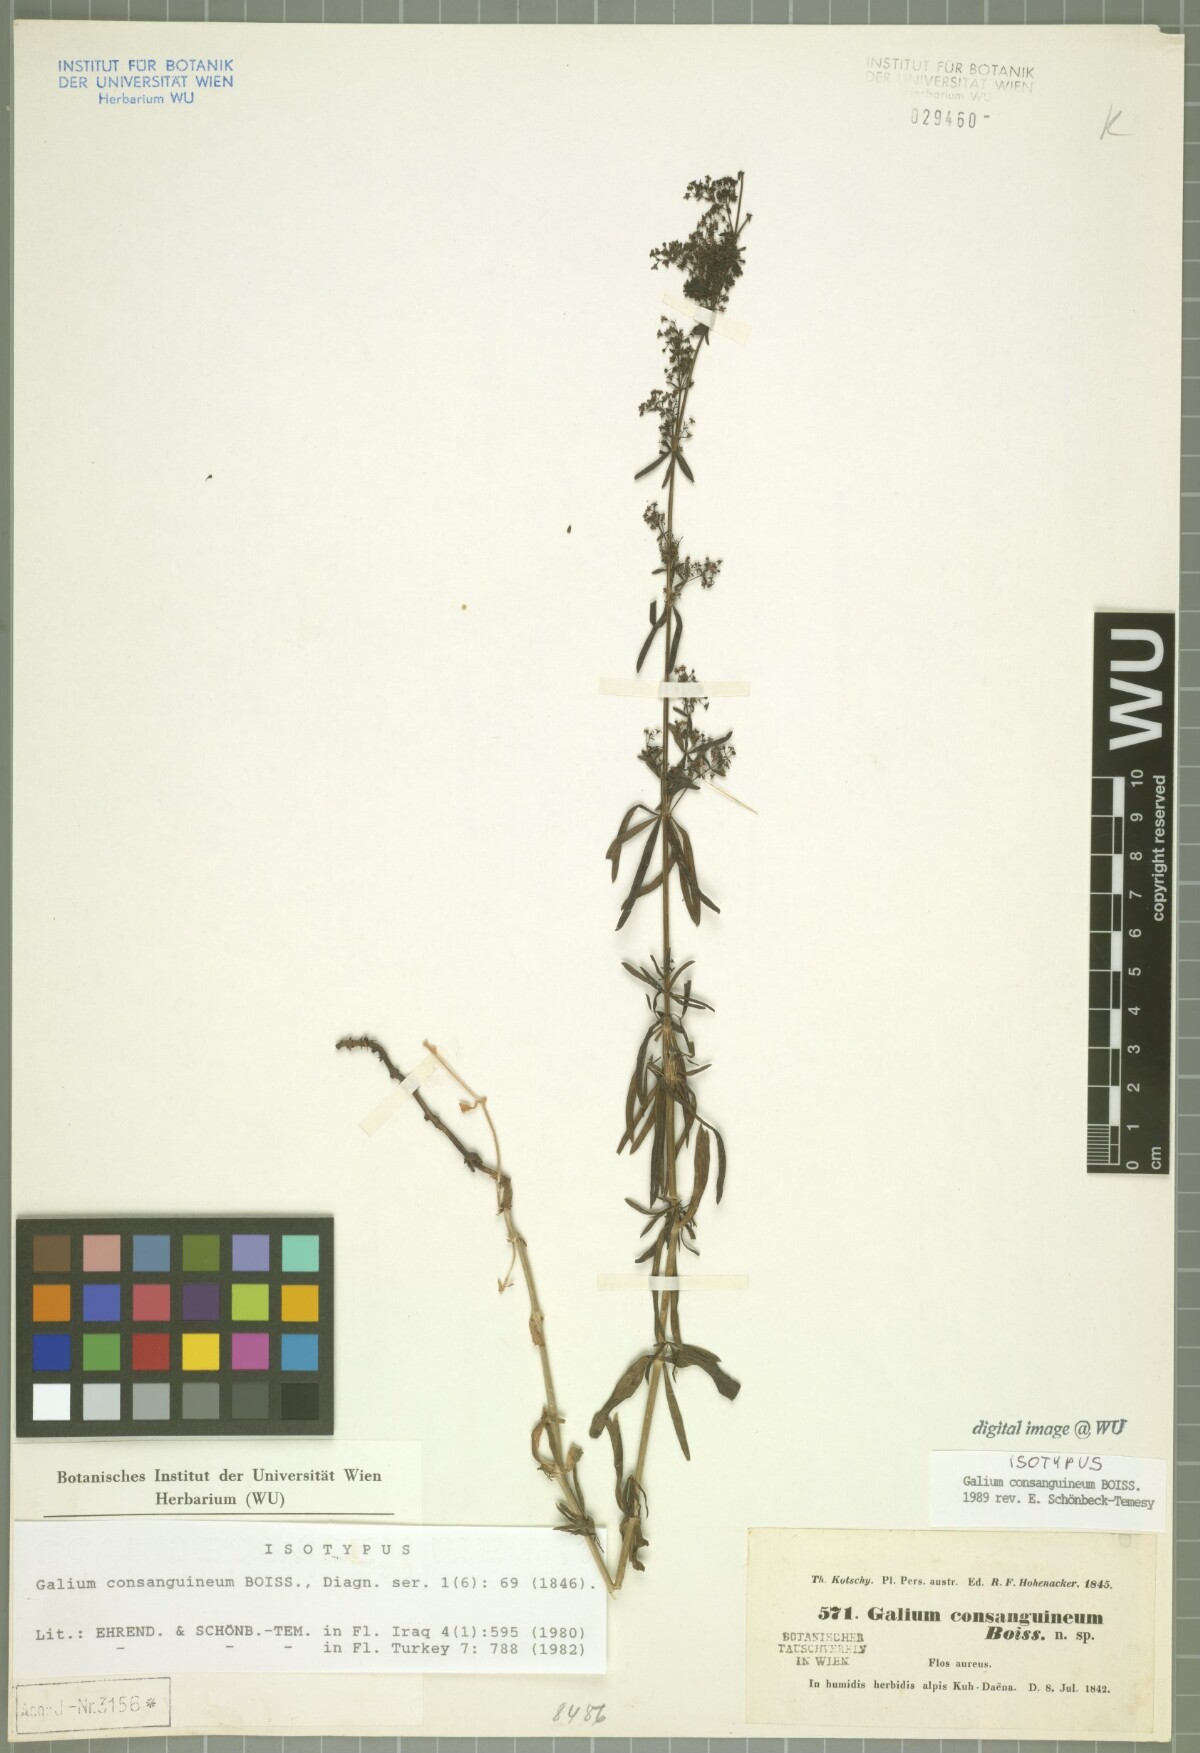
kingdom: Plantae
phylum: Tracheophyta
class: Magnoliopsida
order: Gentianales
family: Rubiaceae
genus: Galium
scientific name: Galium consanguineum
